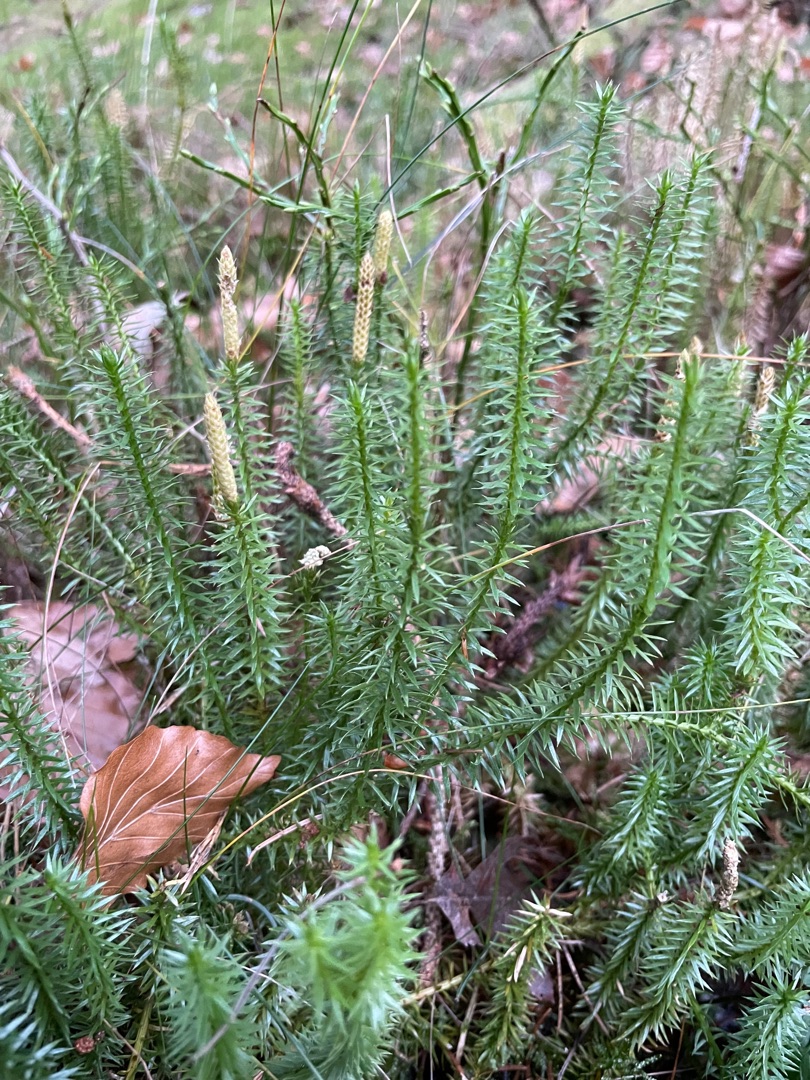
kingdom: Plantae
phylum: Tracheophyta
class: Lycopodiopsida
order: Lycopodiales
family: Lycopodiaceae
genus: Spinulum
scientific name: Spinulum annotinum
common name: Femradet ulvefod
